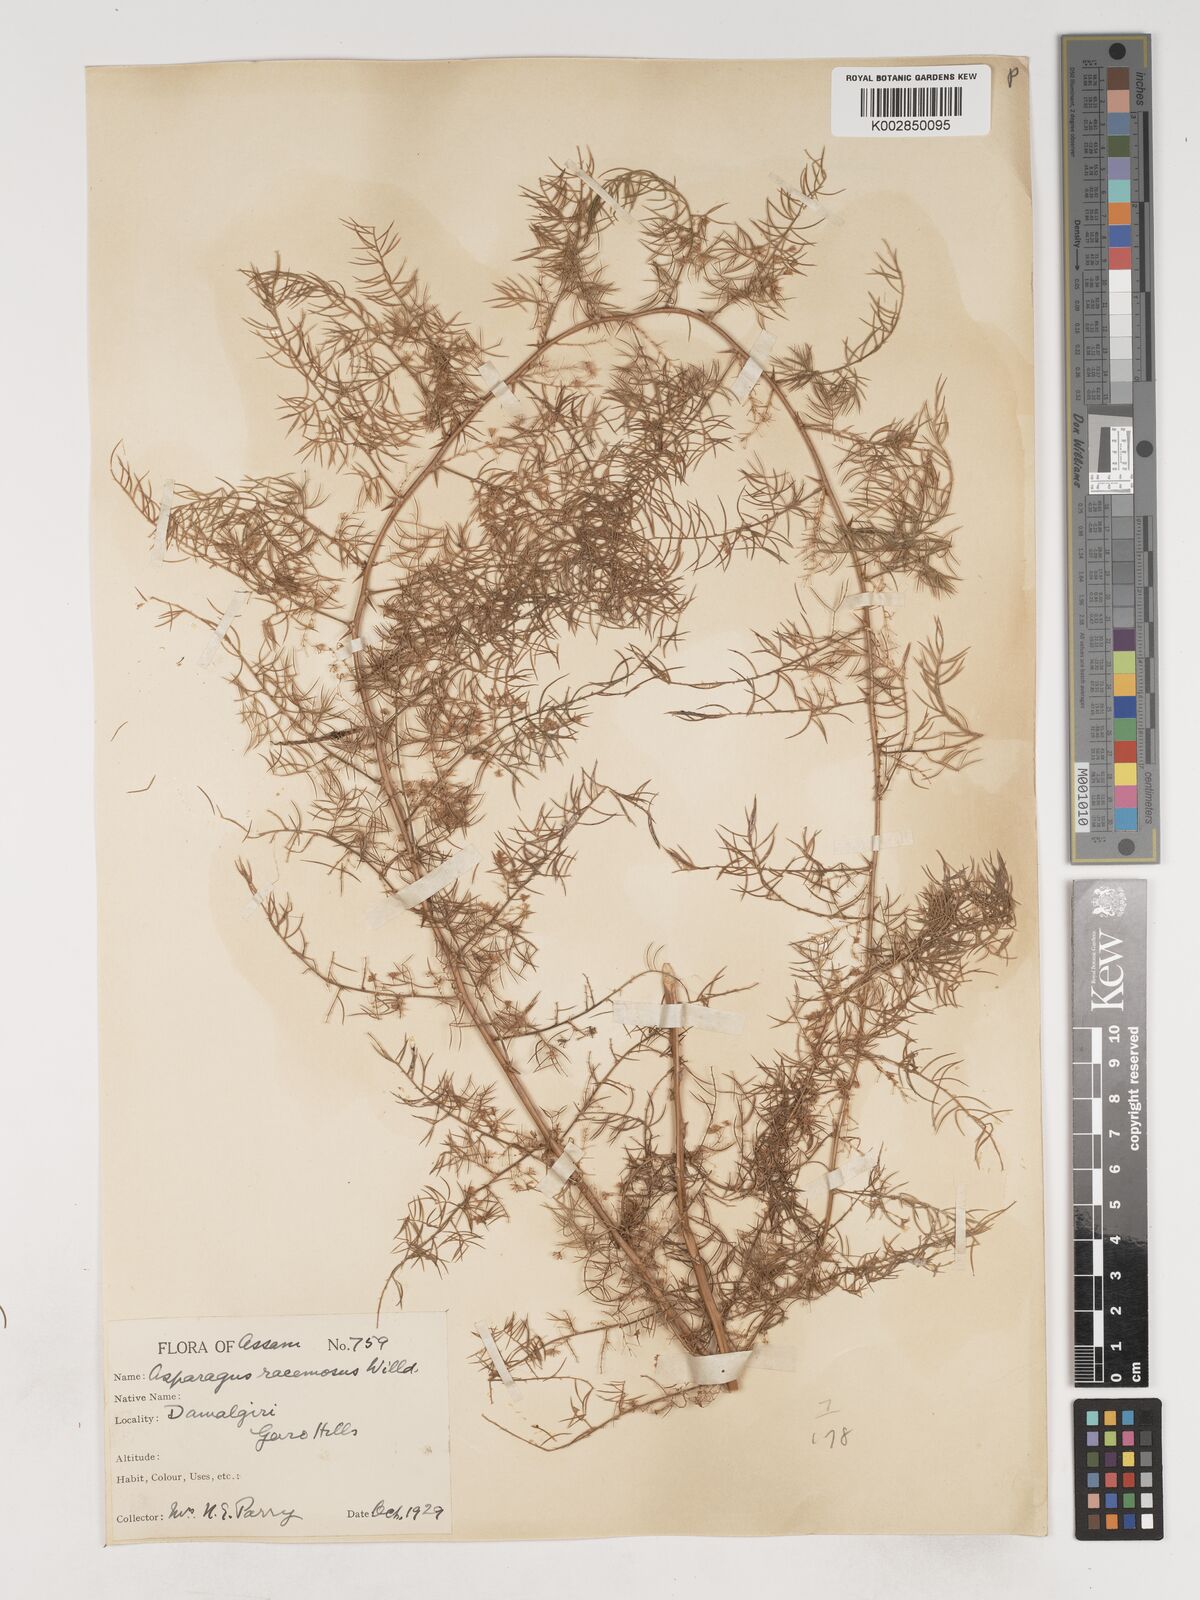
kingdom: Plantae
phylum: Tracheophyta
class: Liliopsida
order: Asparagales
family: Asparagaceae
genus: Asparagus
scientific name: Asparagus racemosus
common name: Asparagus-fern
